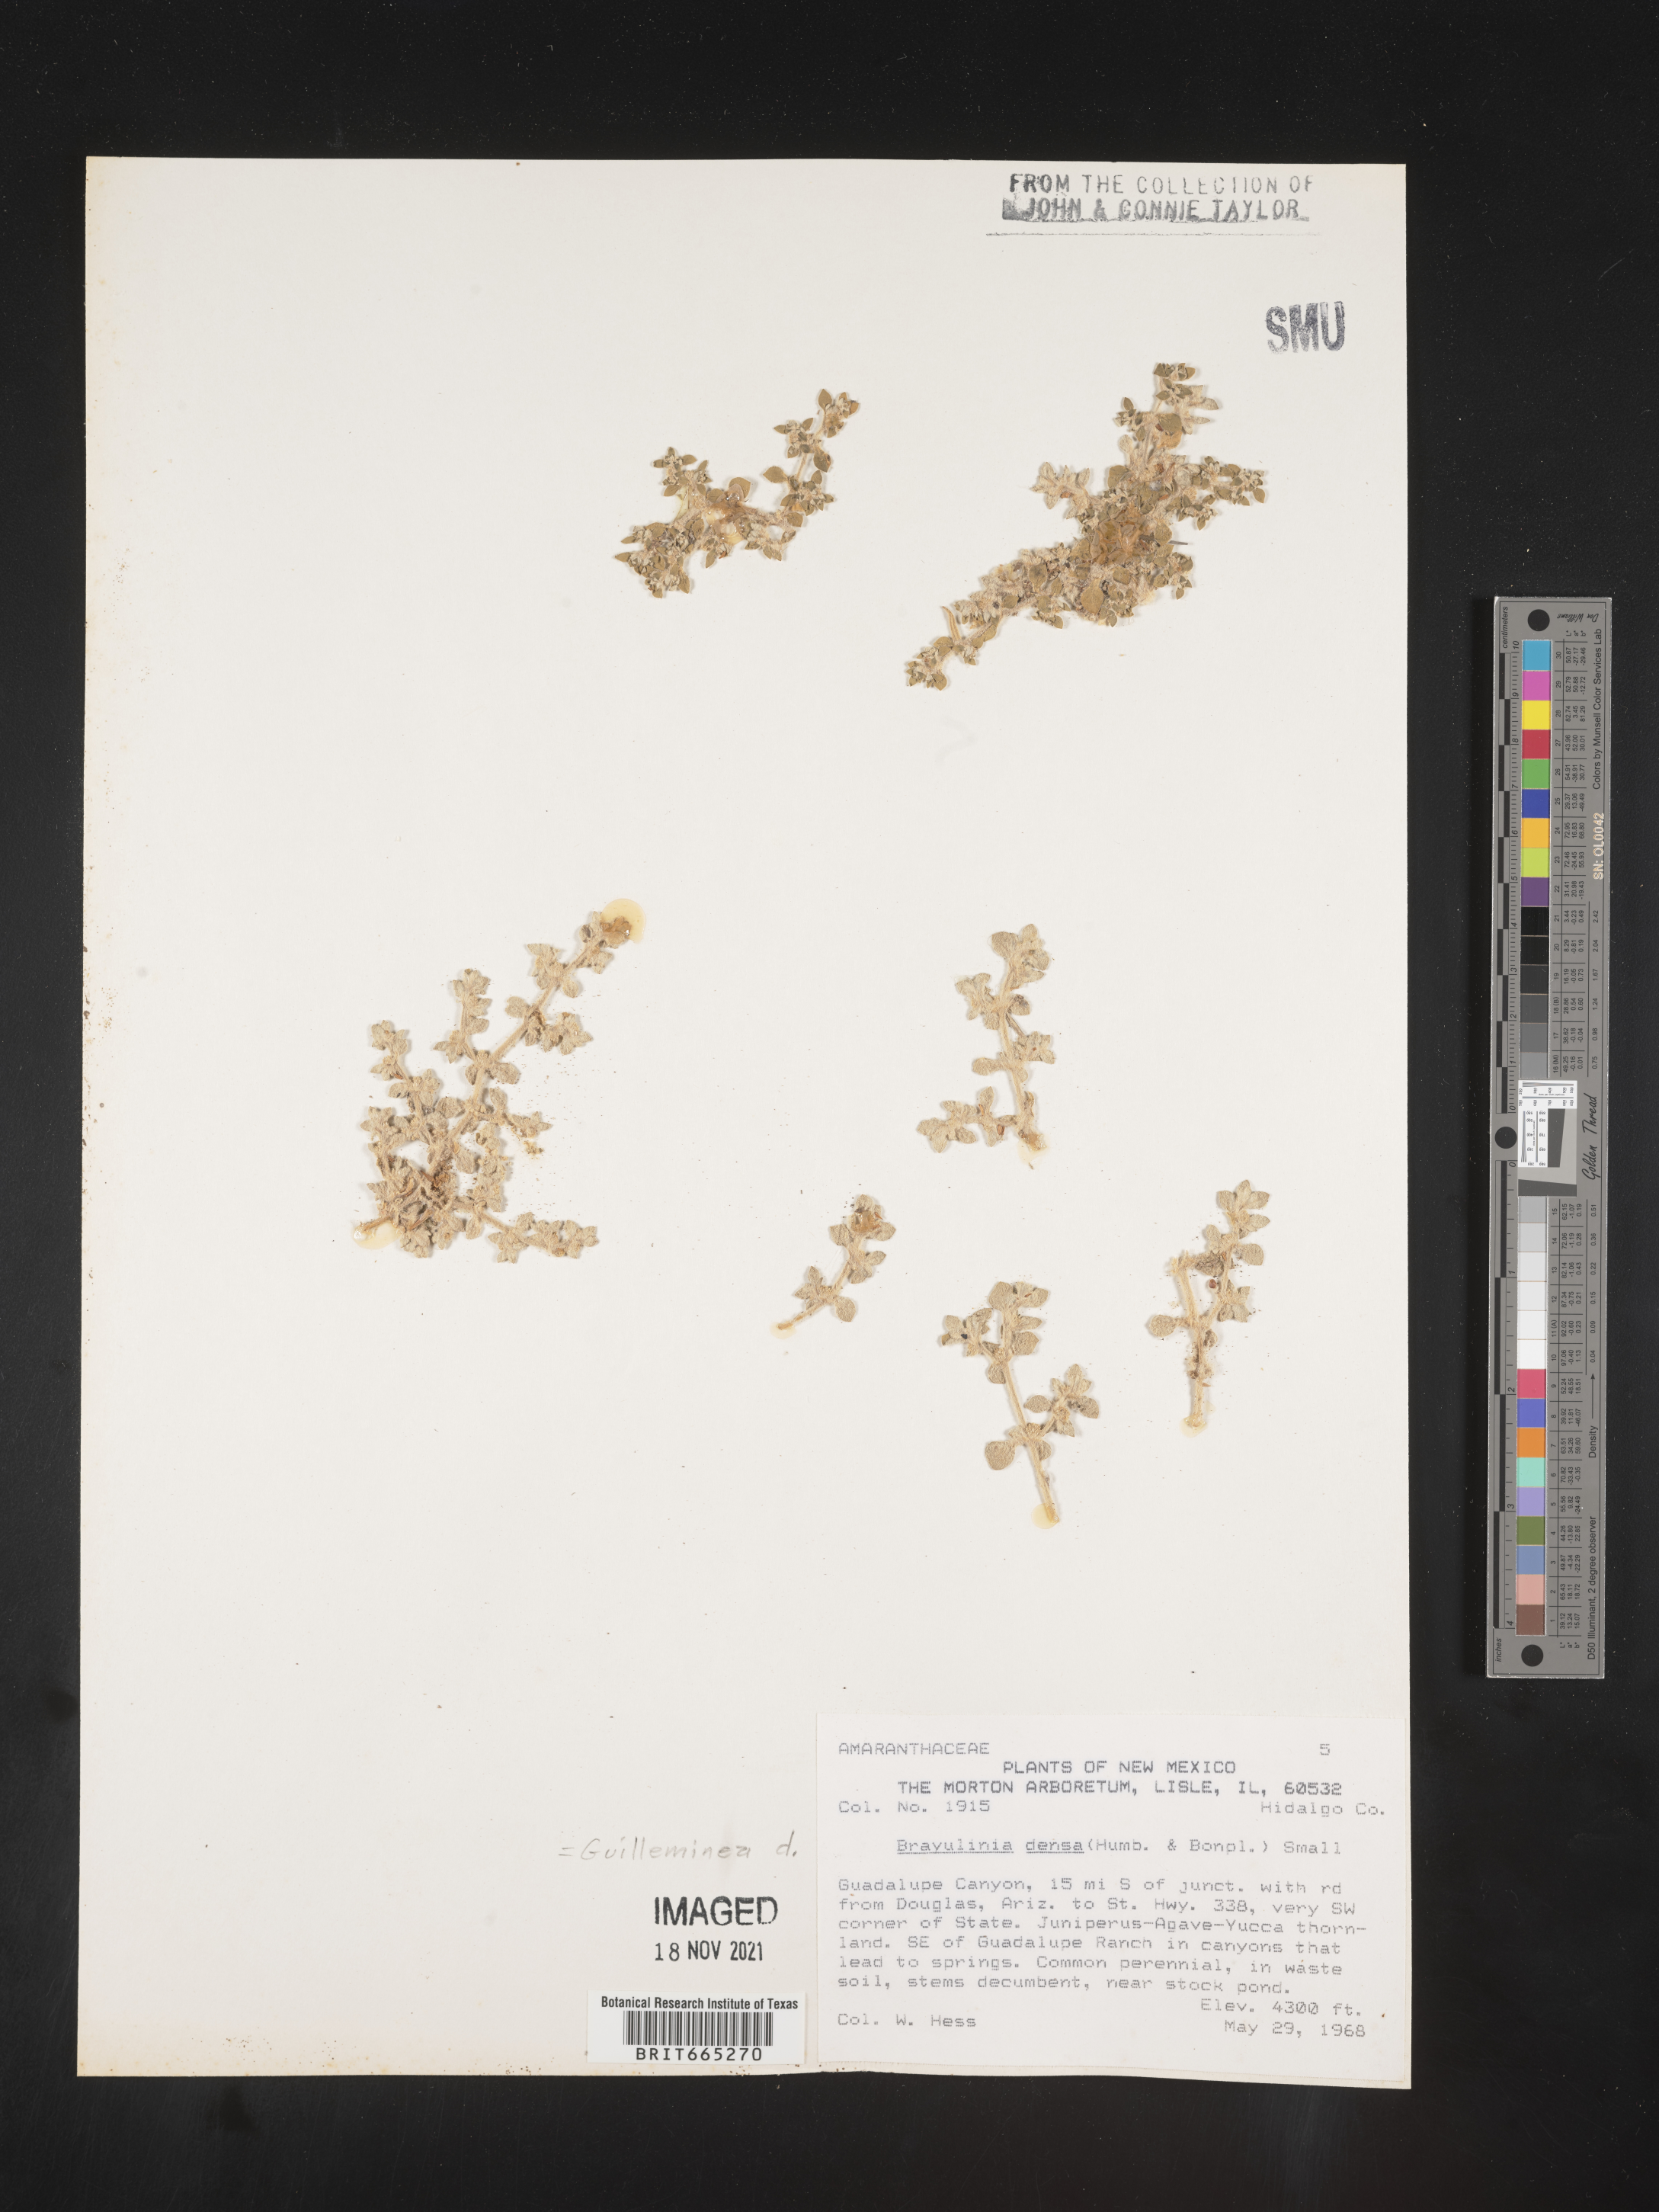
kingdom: Plantae
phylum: Tracheophyta
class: Magnoliopsida
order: Caryophyllales
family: Amaranthaceae
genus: Guilleminea
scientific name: Guilleminea densa
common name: Small matweed
